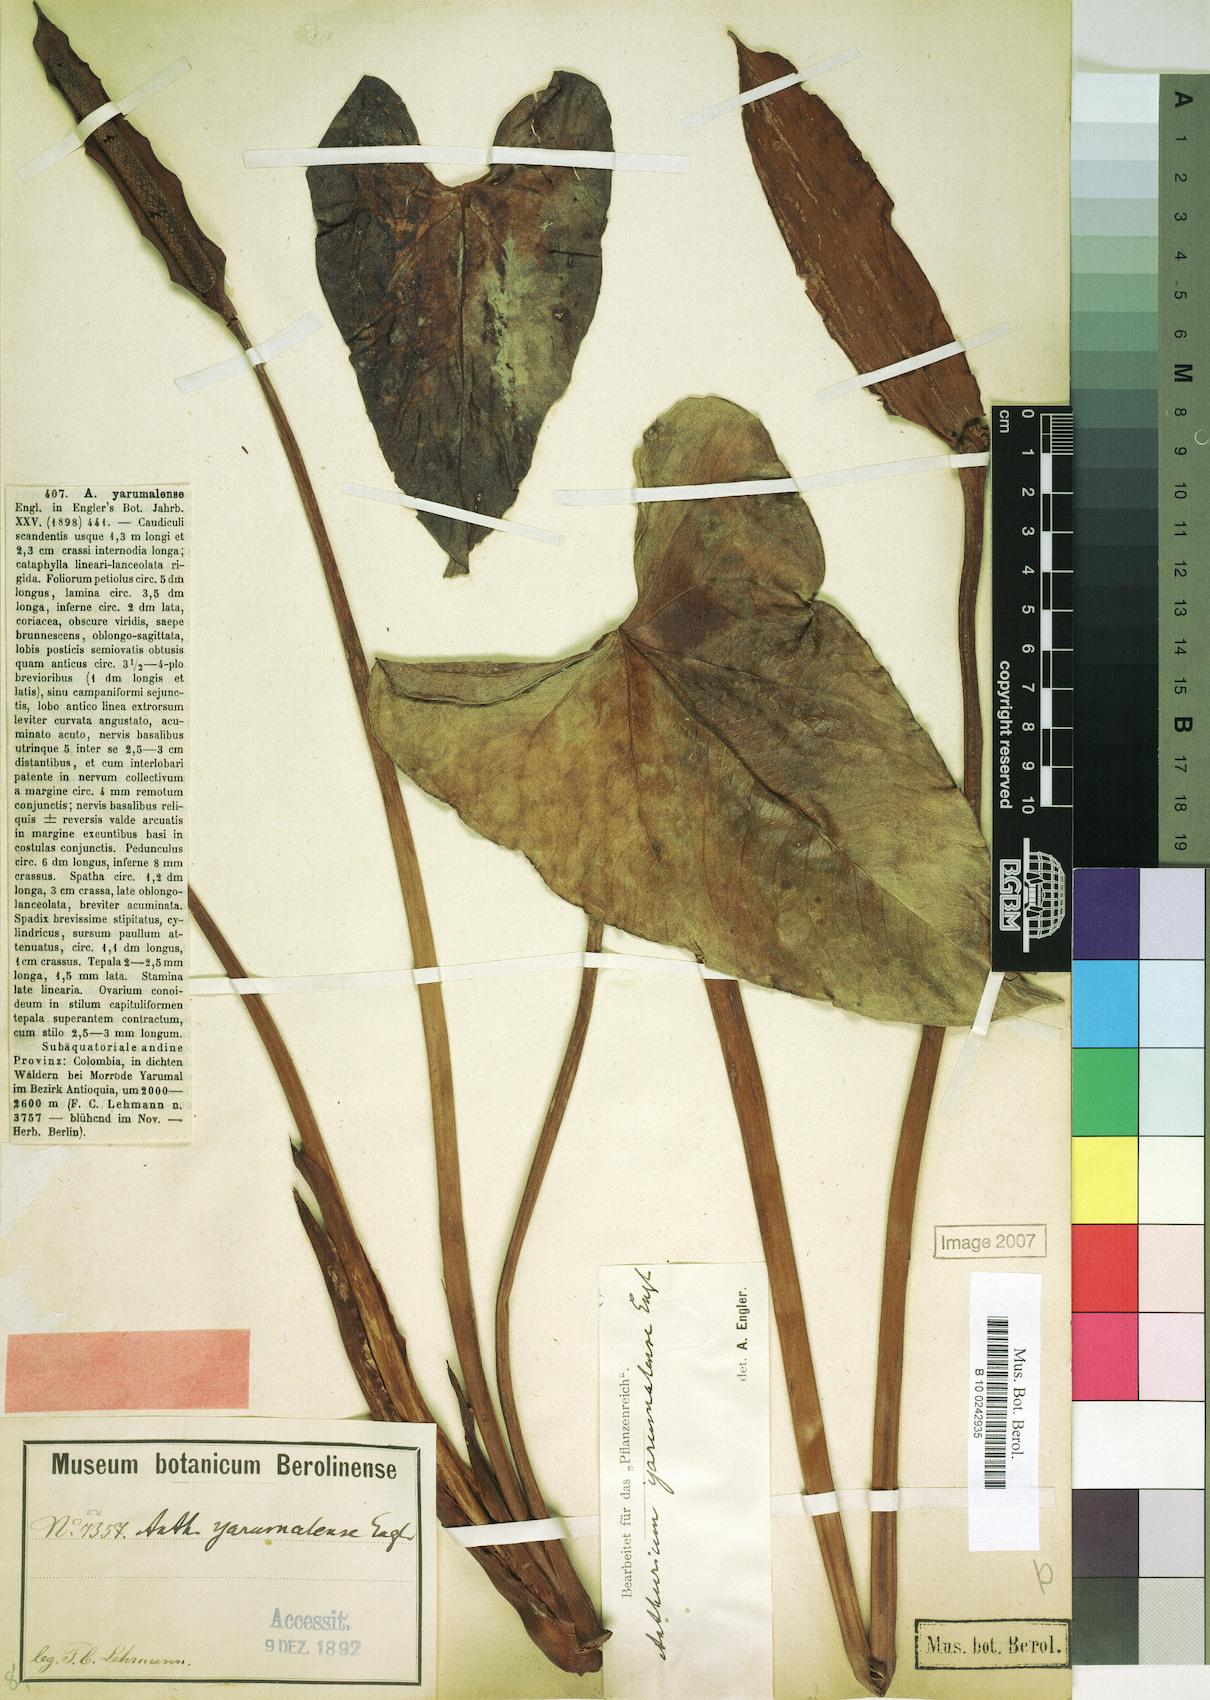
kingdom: Plantae
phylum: Tracheophyta
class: Liliopsida
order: Alismatales
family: Araceae
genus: Anthurium
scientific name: Anthurium yarumalense
